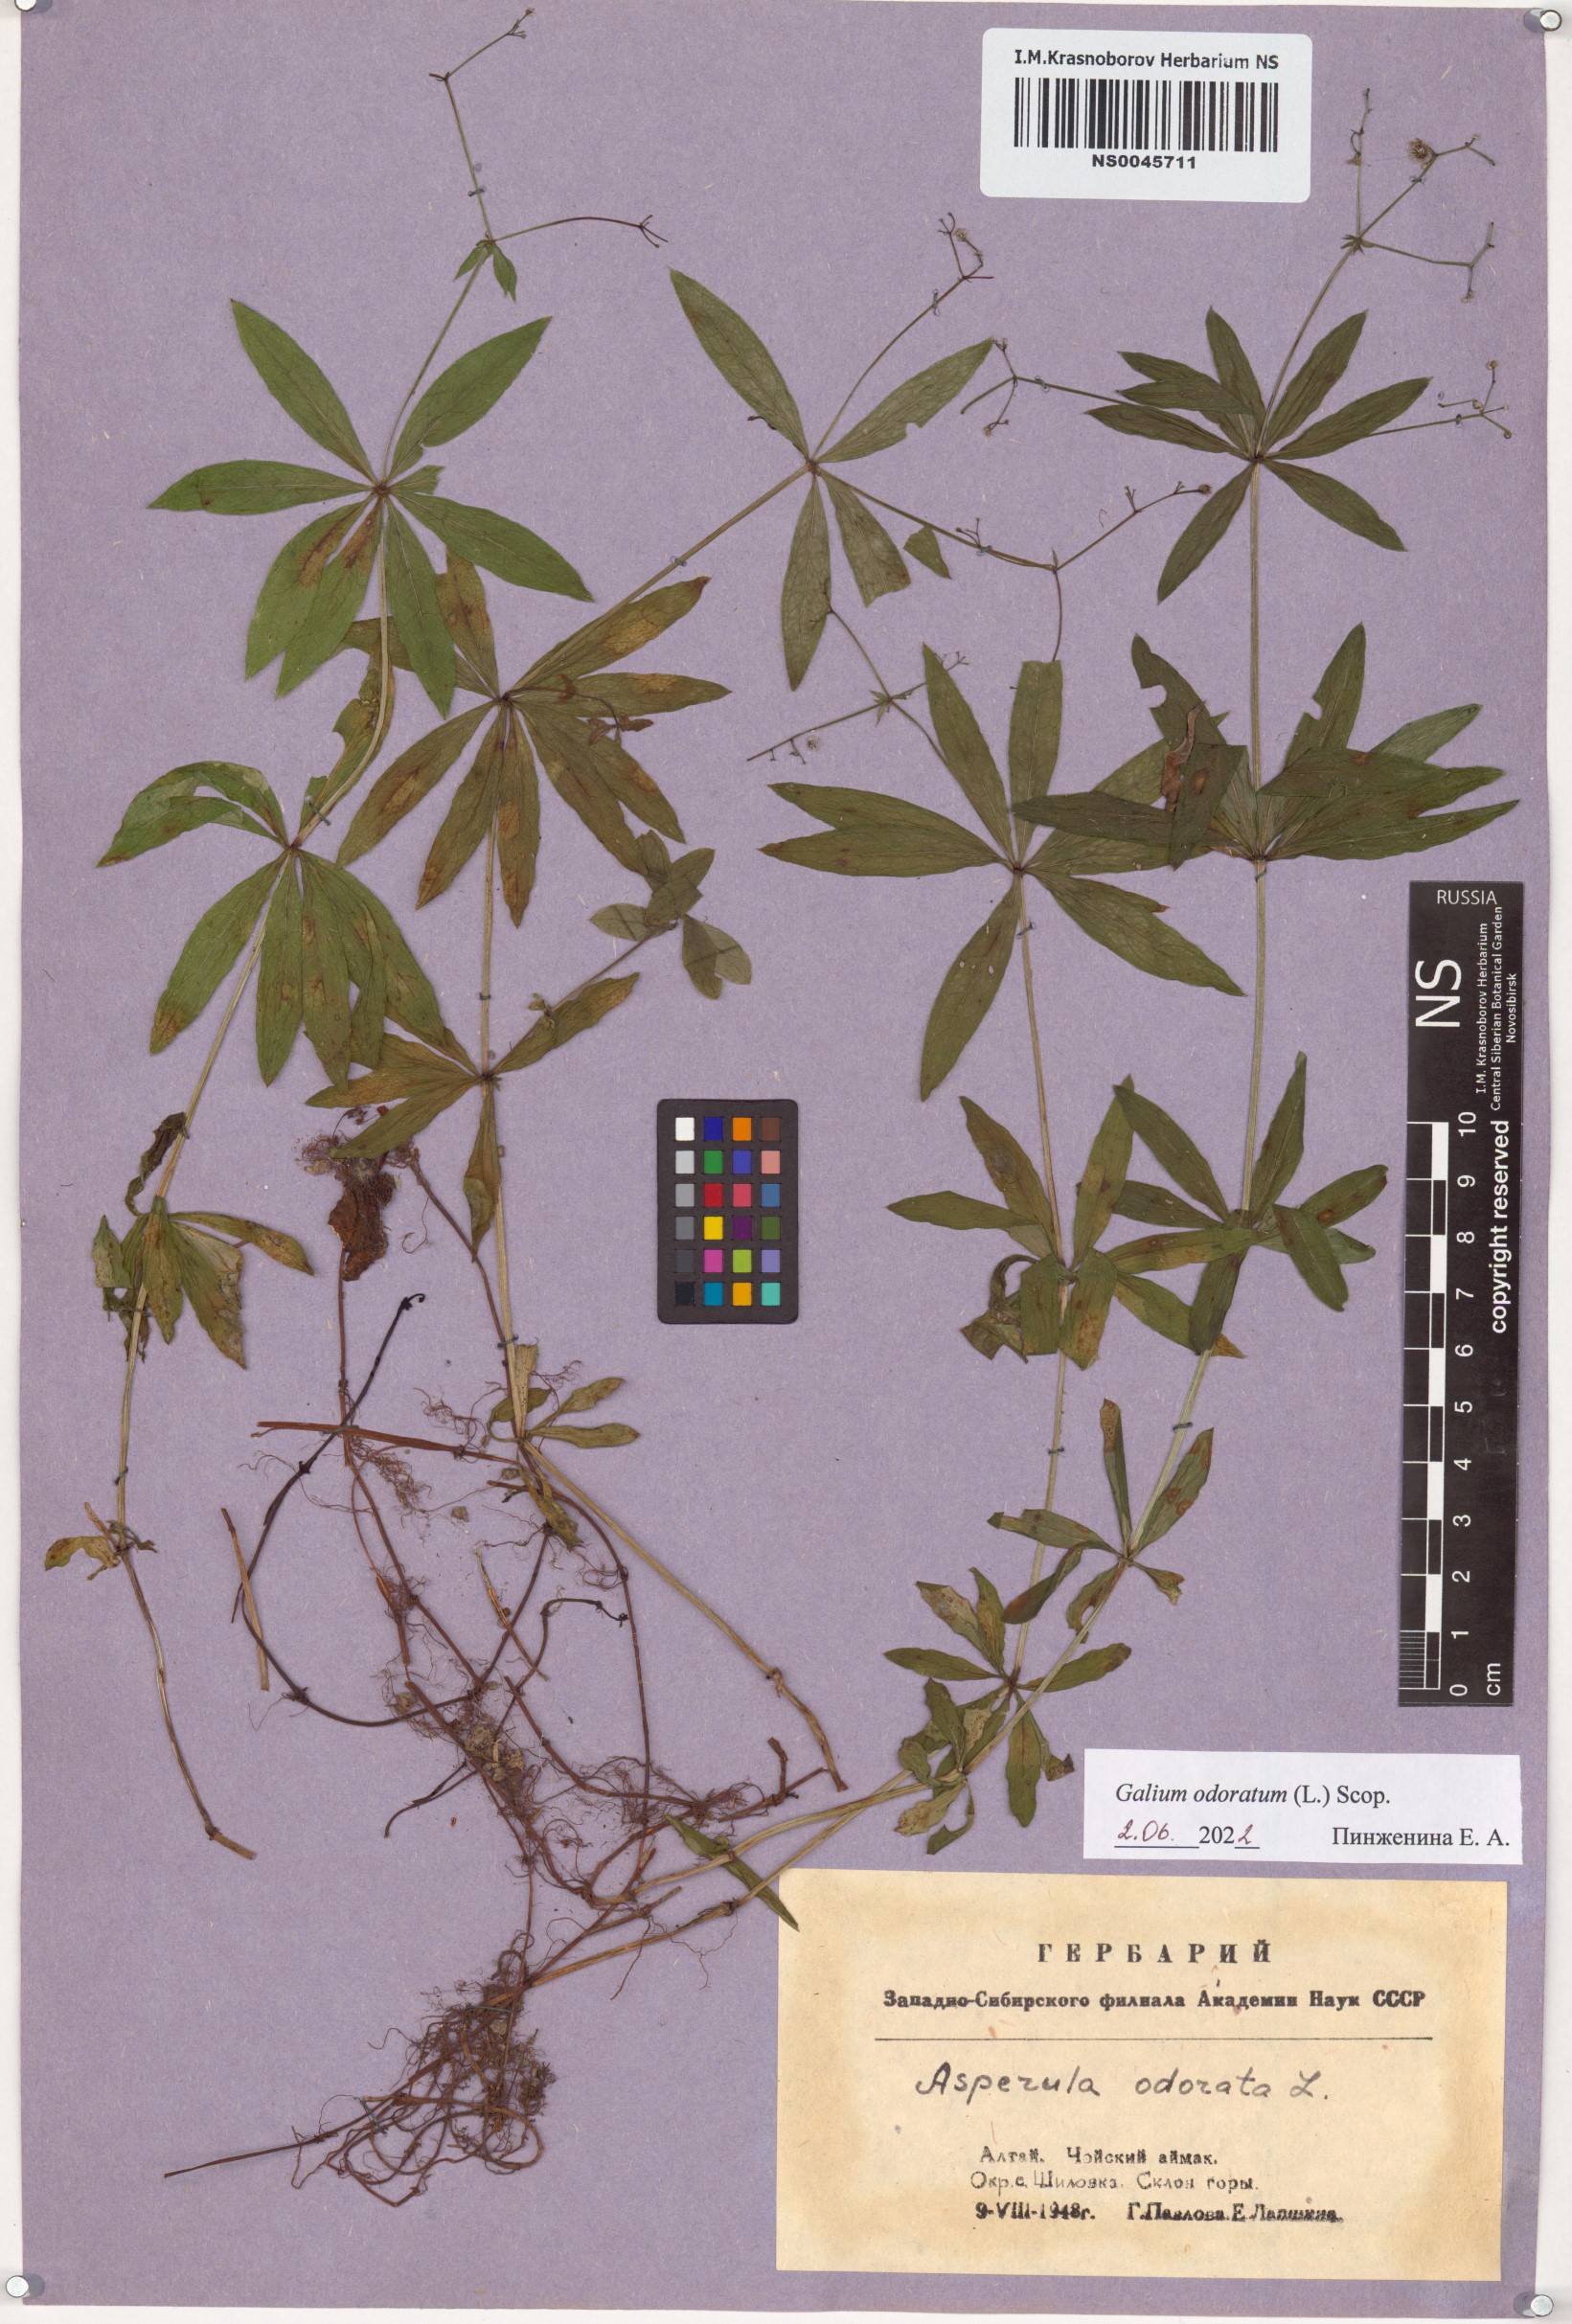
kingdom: Plantae
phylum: Tracheophyta
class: Magnoliopsida
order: Gentianales
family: Rubiaceae
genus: Galium
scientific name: Galium odoratum
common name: Sweet woodruff
